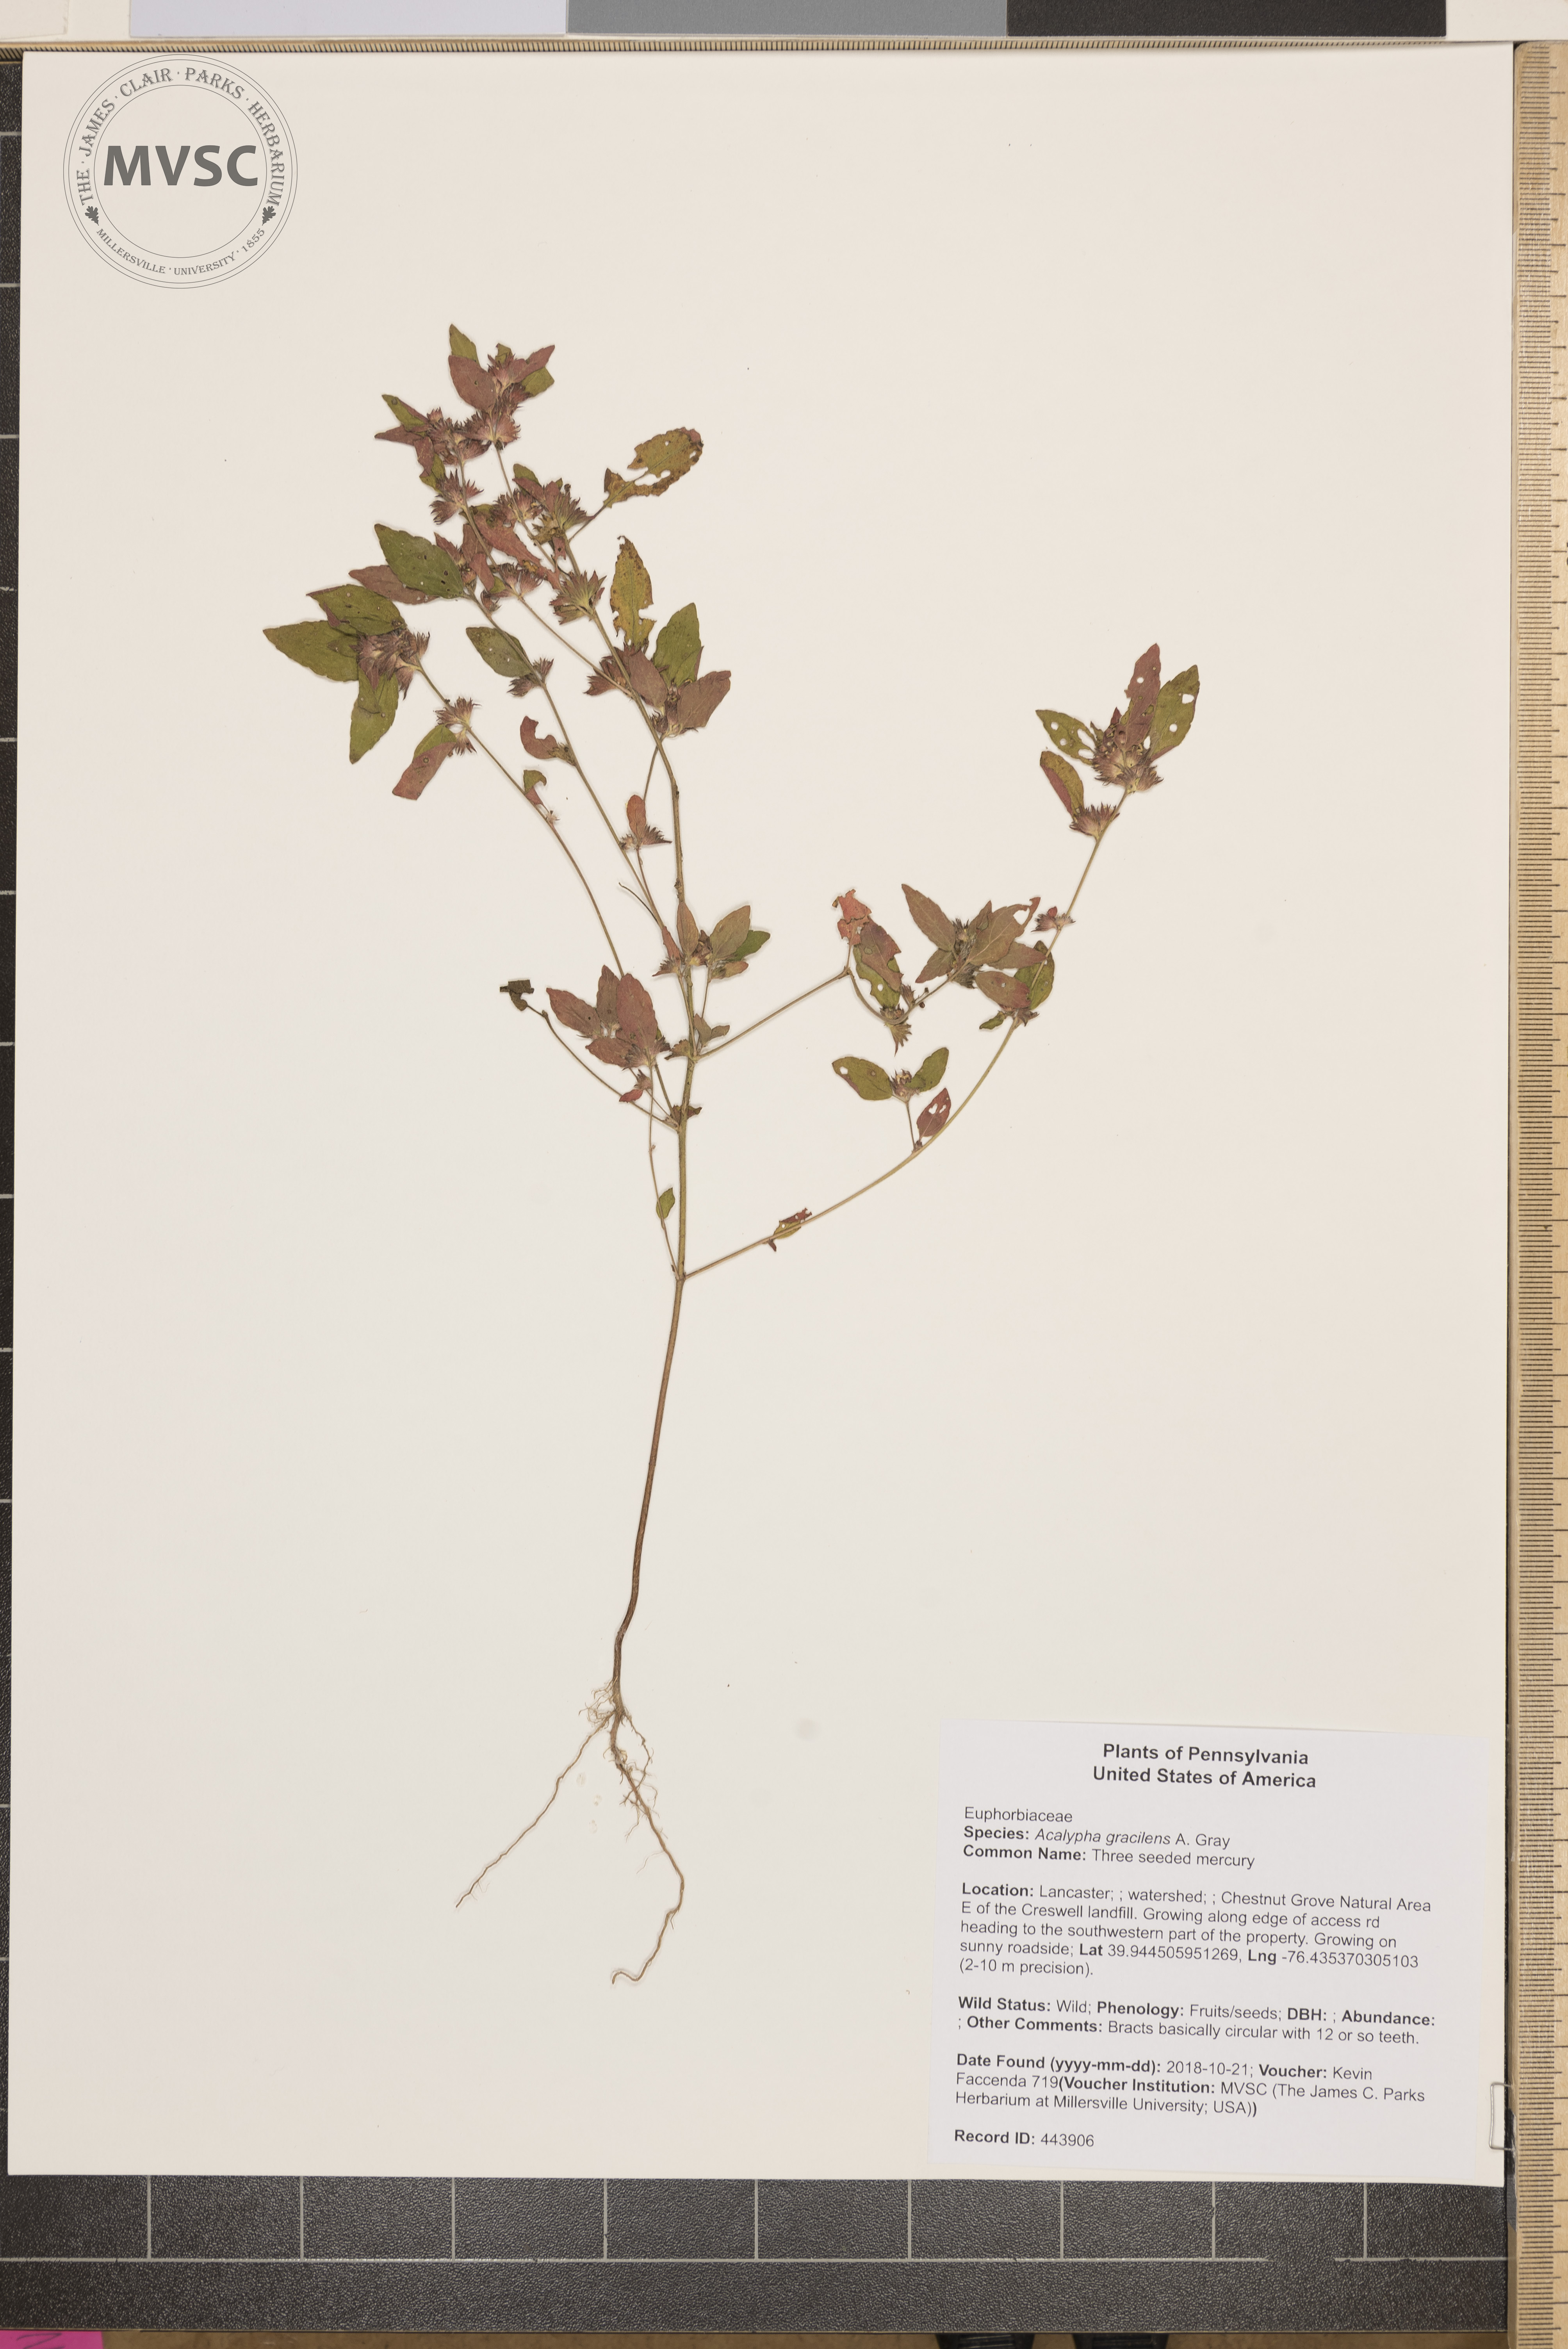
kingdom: Plantae
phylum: Tracheophyta
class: Magnoliopsida
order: Malpighiales
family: Euphorbiaceae
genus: Acalypha
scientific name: Acalypha gracilens
